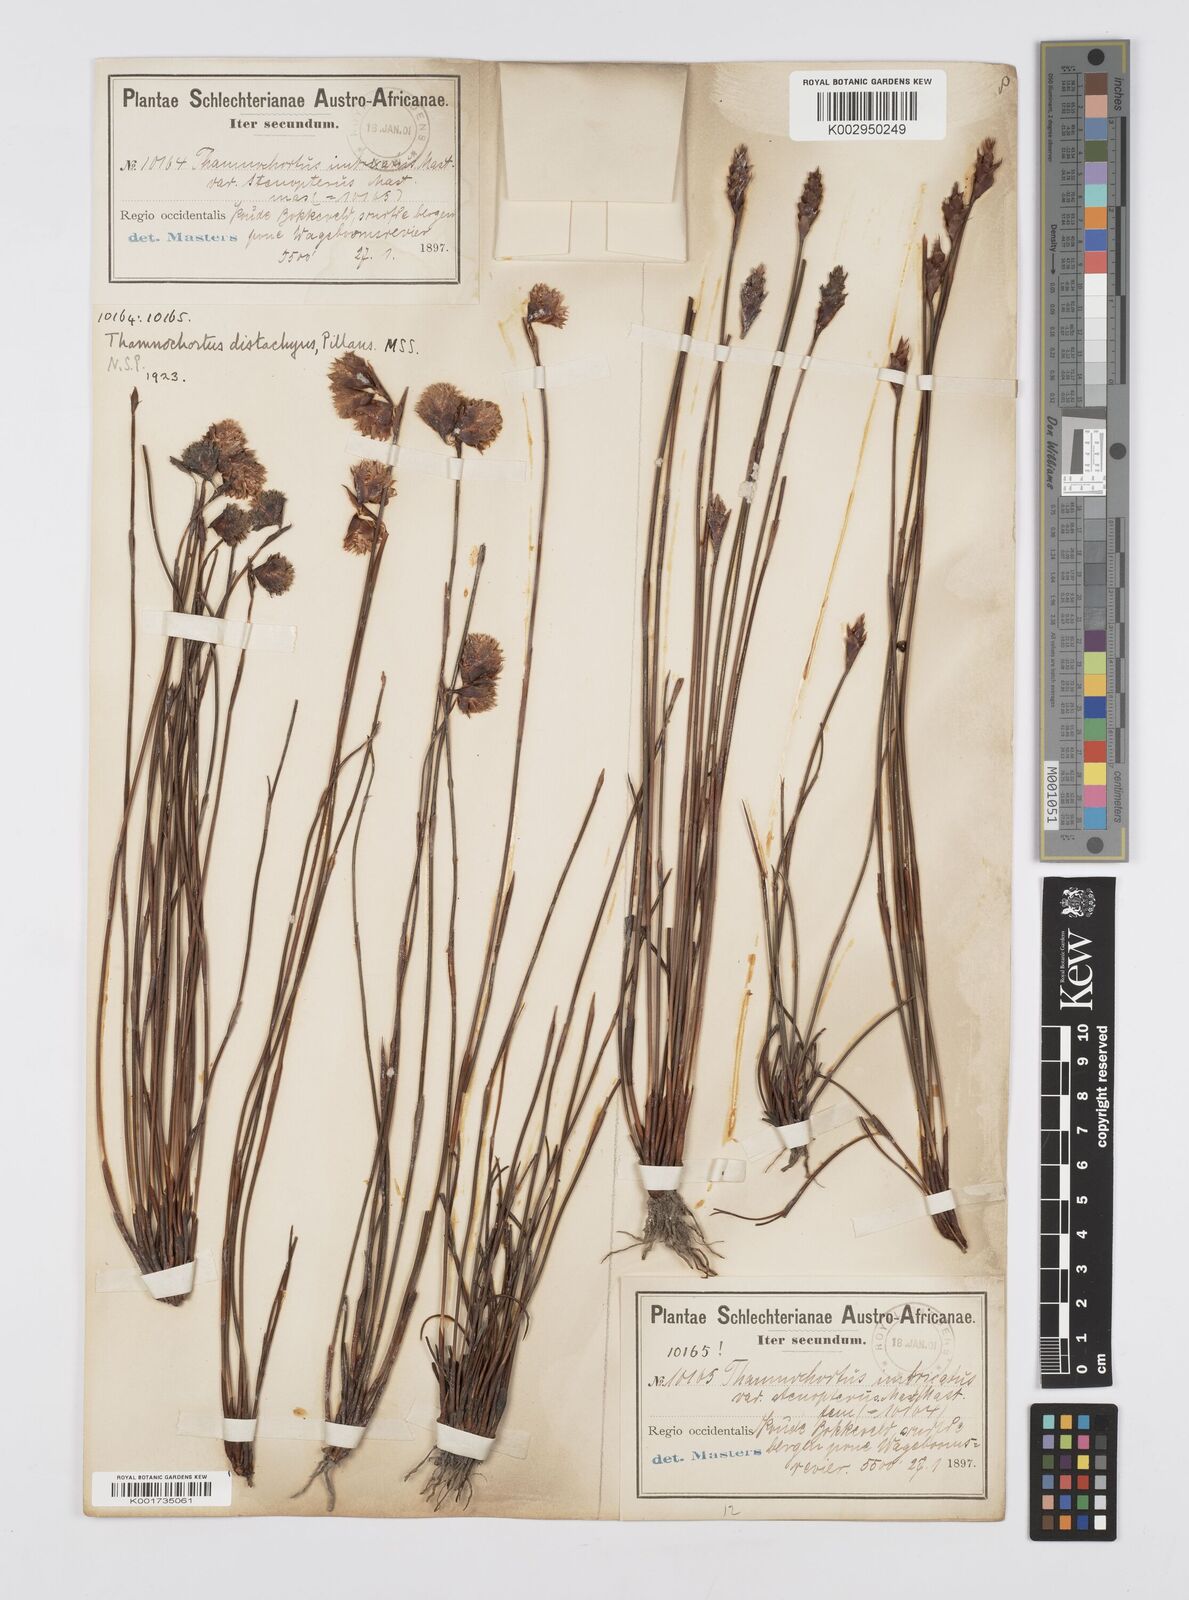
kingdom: Plantae
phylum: Tracheophyta
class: Liliopsida
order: Poales
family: Restionaceae
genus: Staberoha
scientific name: Staberoha aemula
